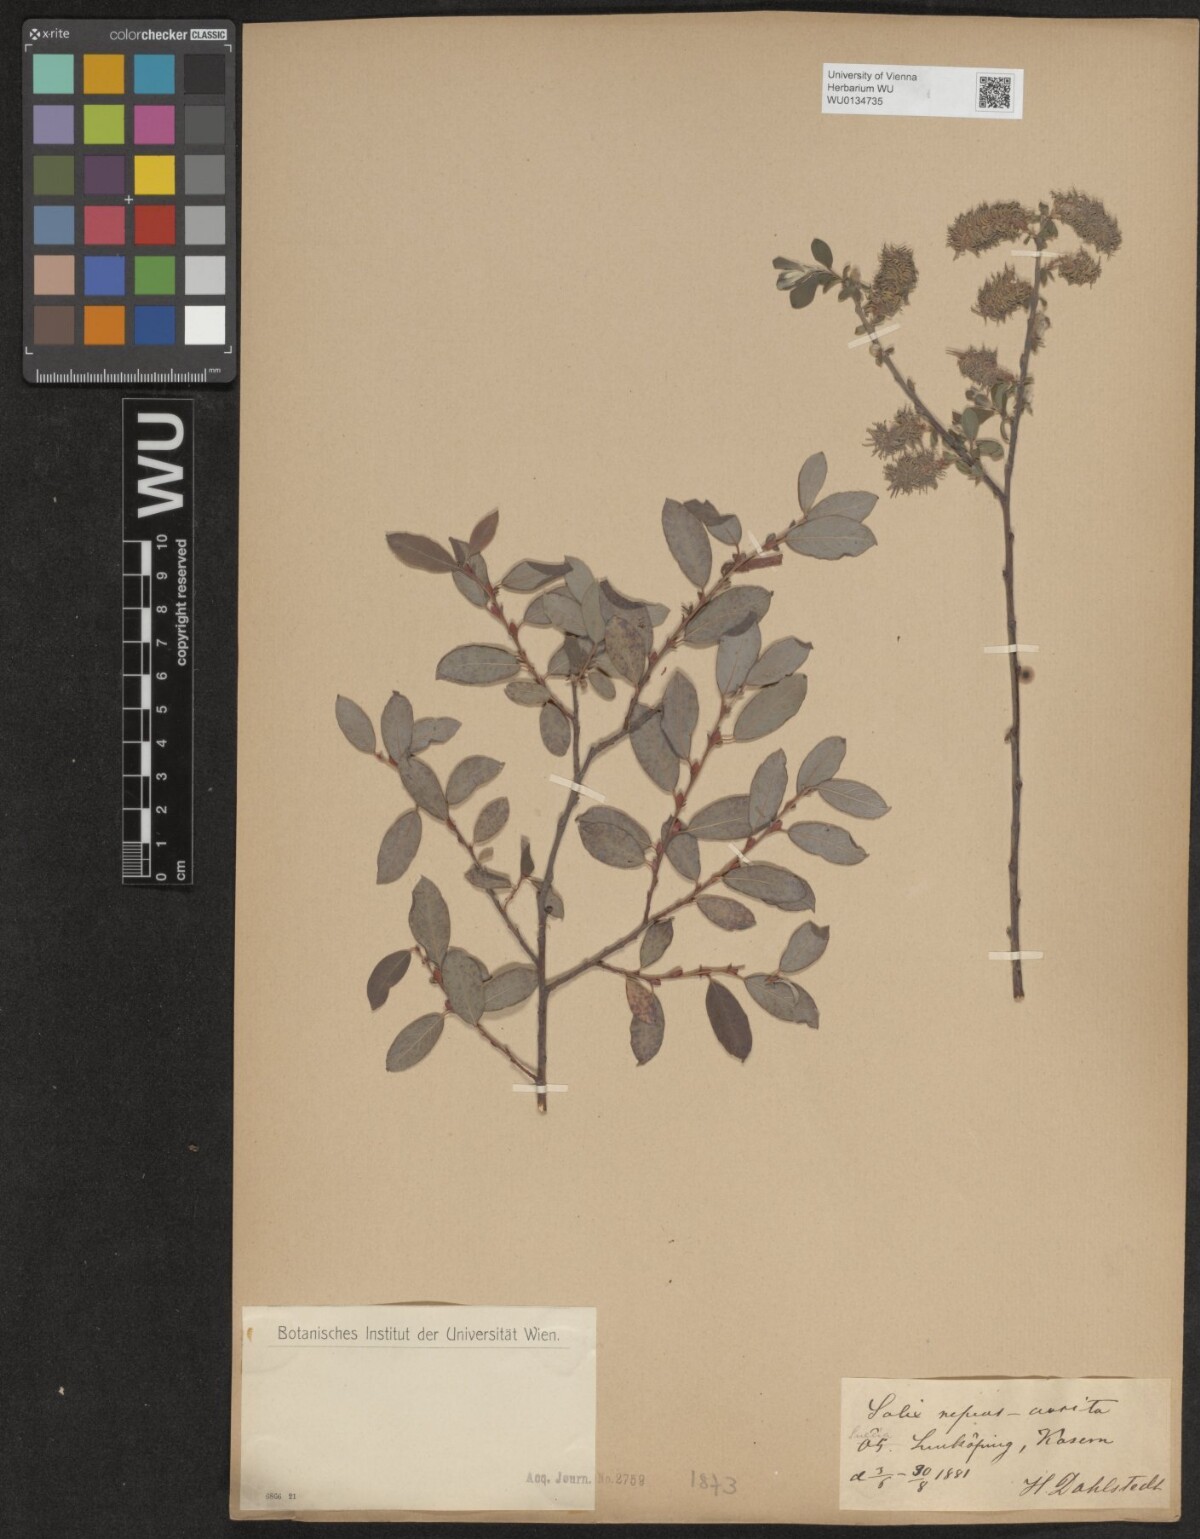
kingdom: Plantae
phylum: Tracheophyta
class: Magnoliopsida
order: Malpighiales
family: Salicaceae
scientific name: Salicaceae
